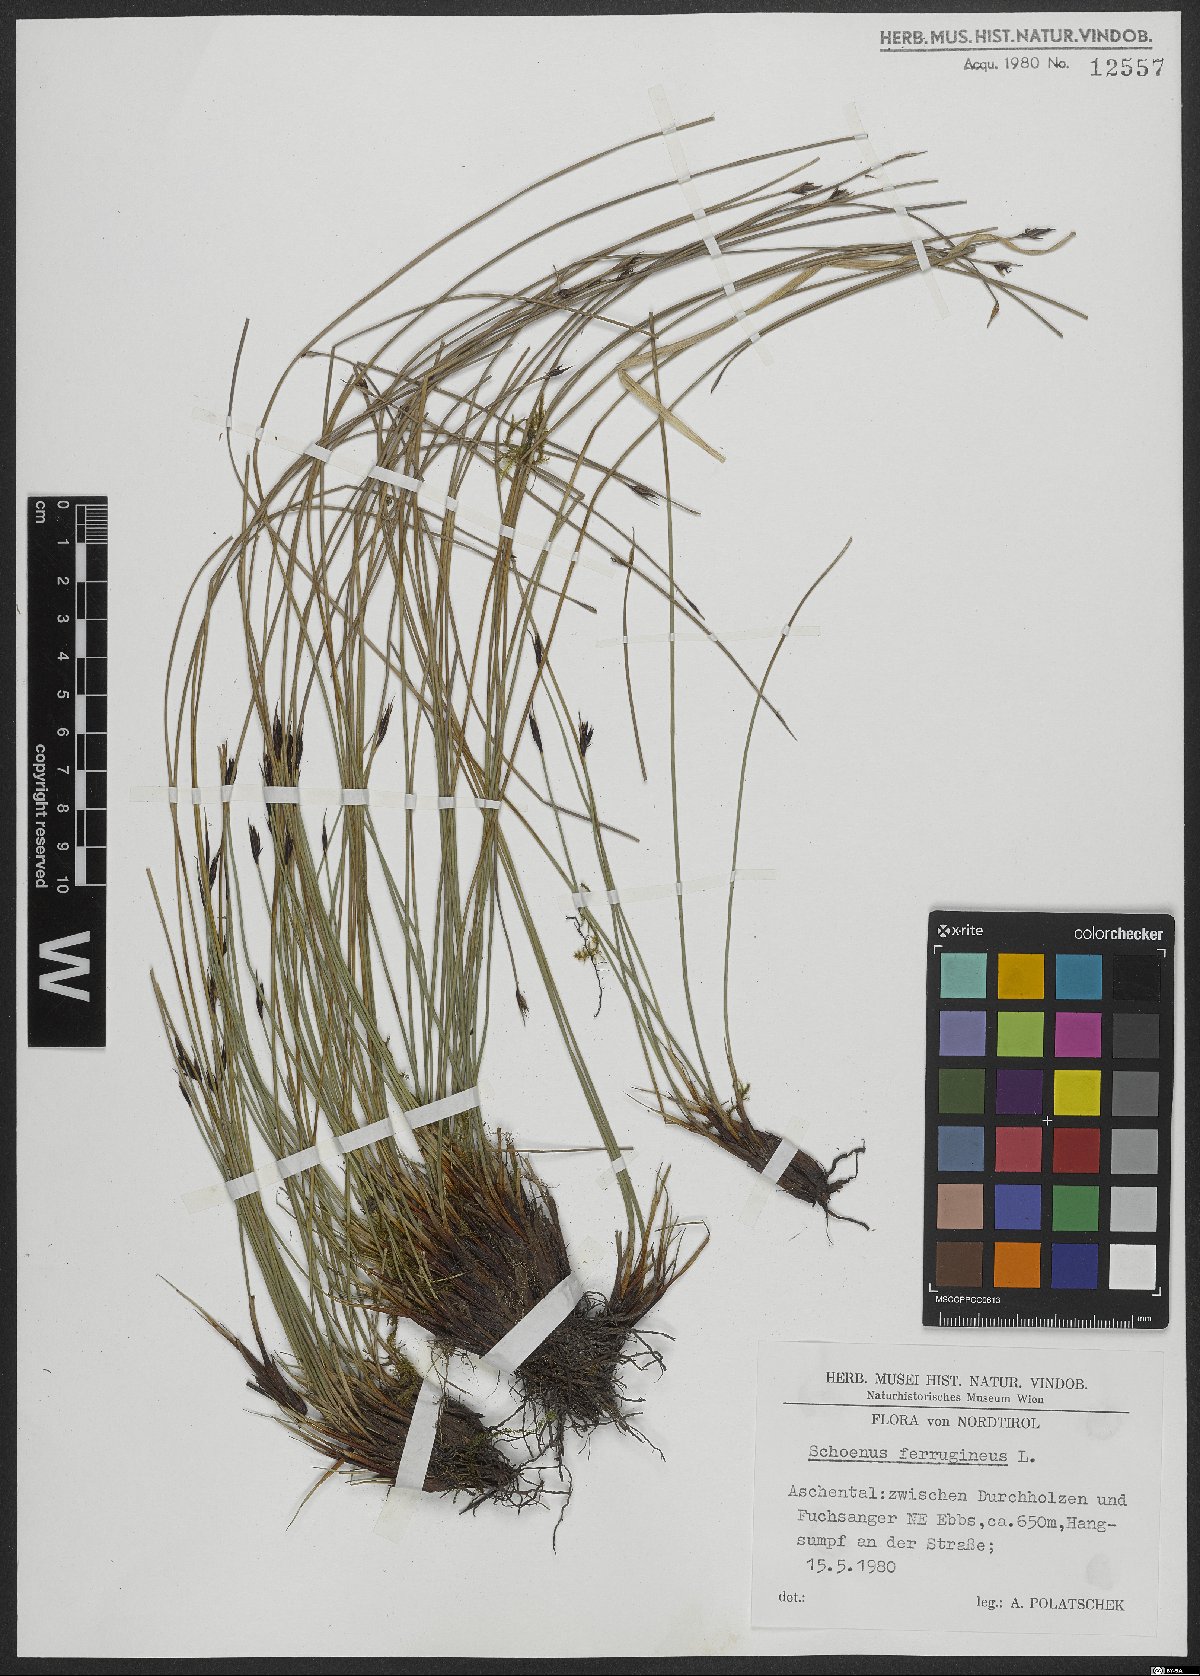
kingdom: Plantae
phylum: Tracheophyta
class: Liliopsida
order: Poales
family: Cyperaceae
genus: Schoenus
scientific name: Schoenus ferrugineus
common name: Brown bog-rush
